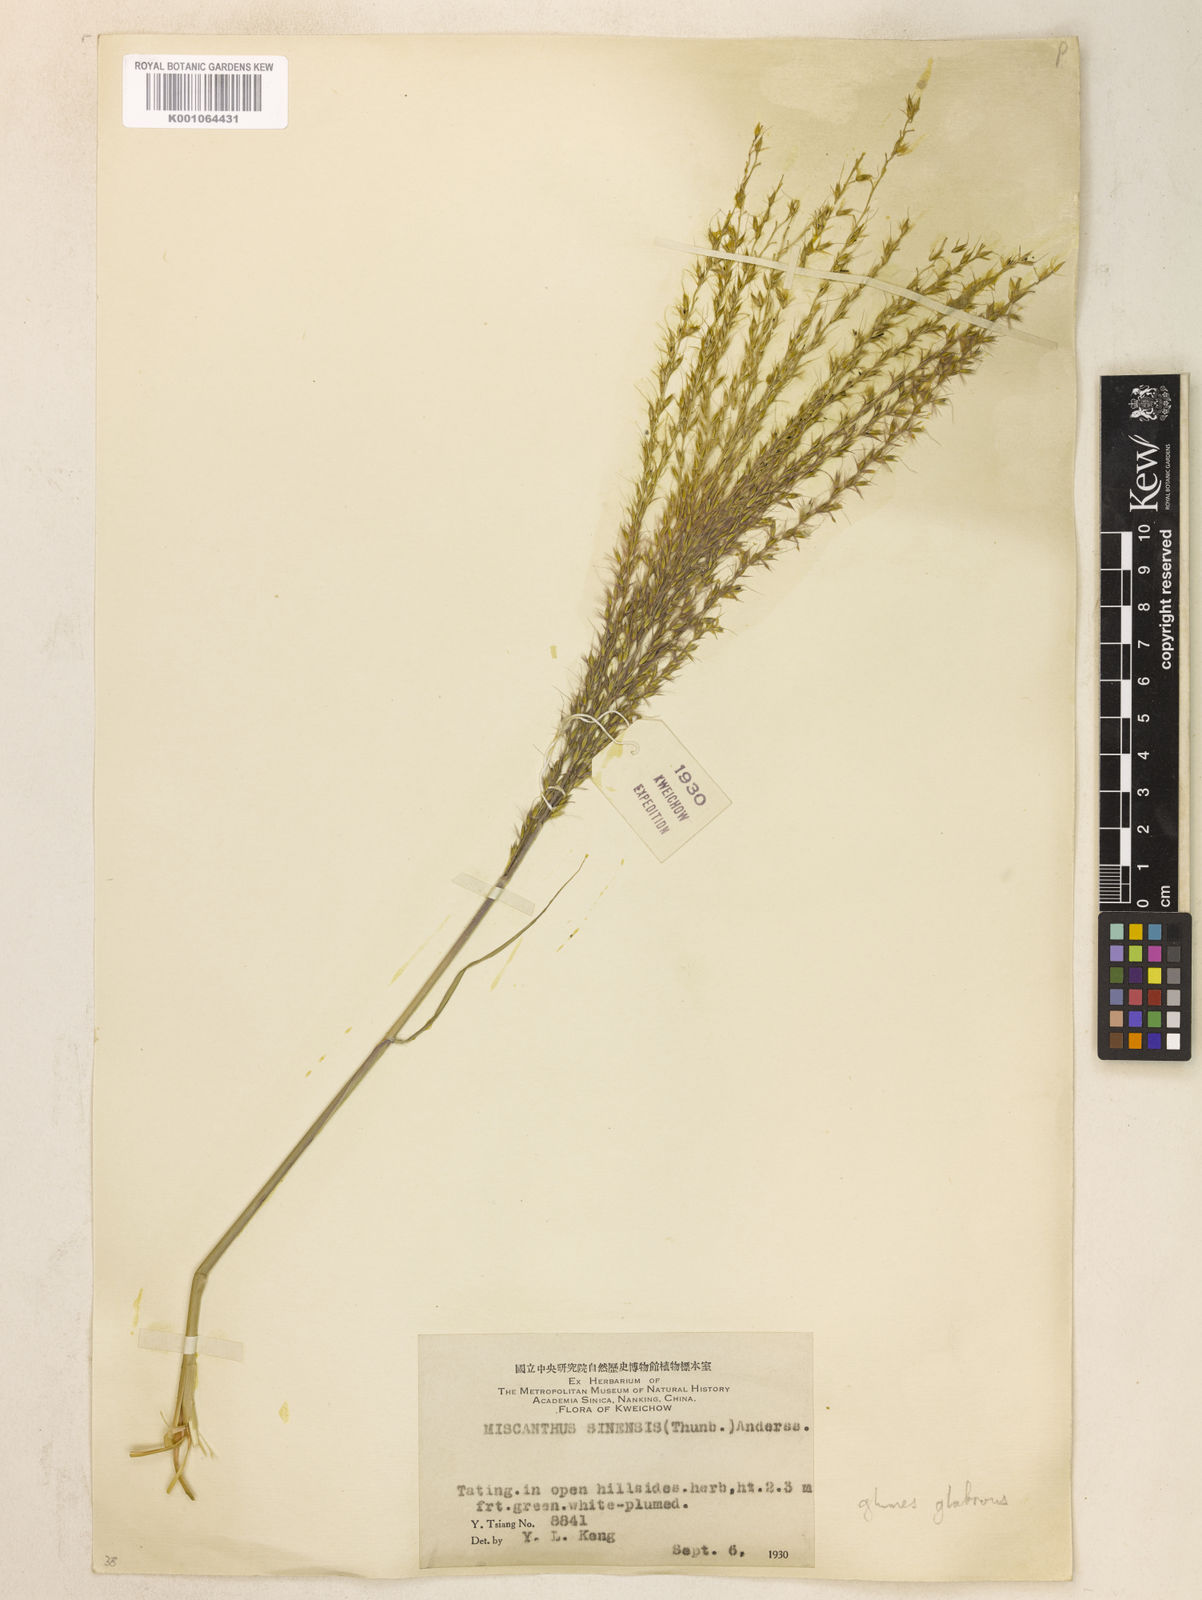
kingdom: Plantae
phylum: Tracheophyta
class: Liliopsida
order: Poales
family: Poaceae
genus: Miscanthus
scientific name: Miscanthus sinensis
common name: Chinese silvergrass
